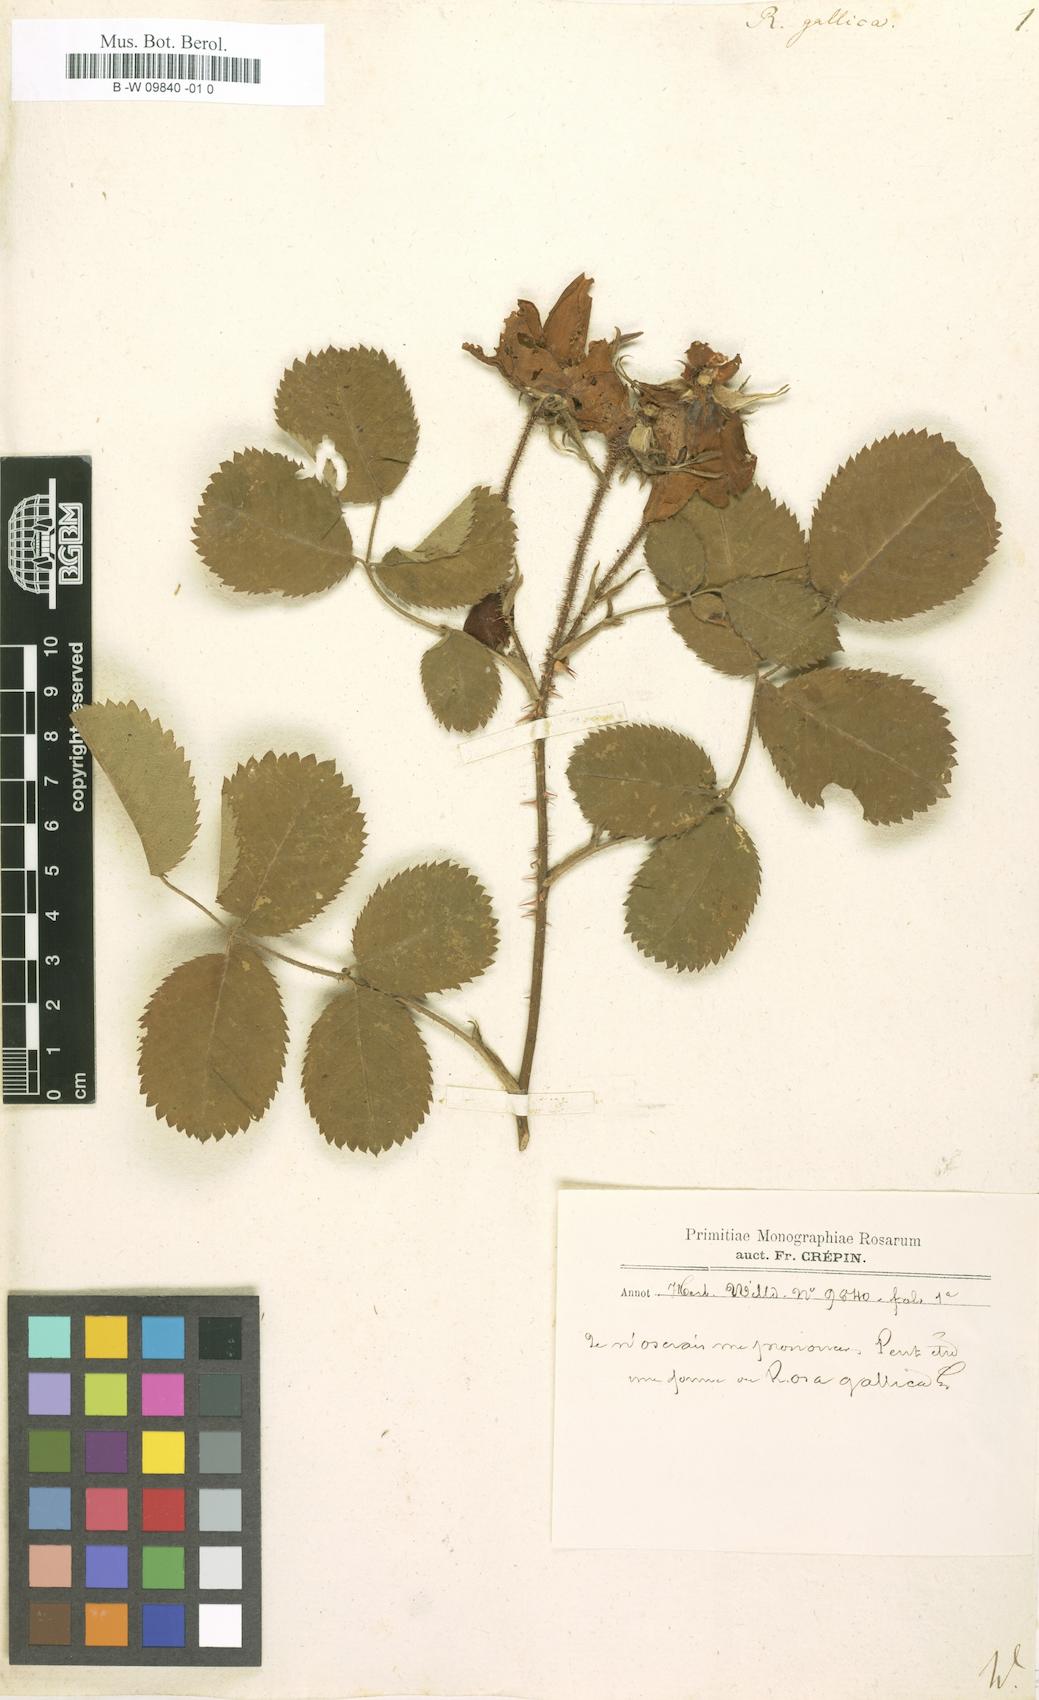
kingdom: Plantae
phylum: Tracheophyta
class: Magnoliopsida
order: Rosales
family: Rosaceae
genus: Rosa
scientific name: Rosa gallica
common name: French rose
